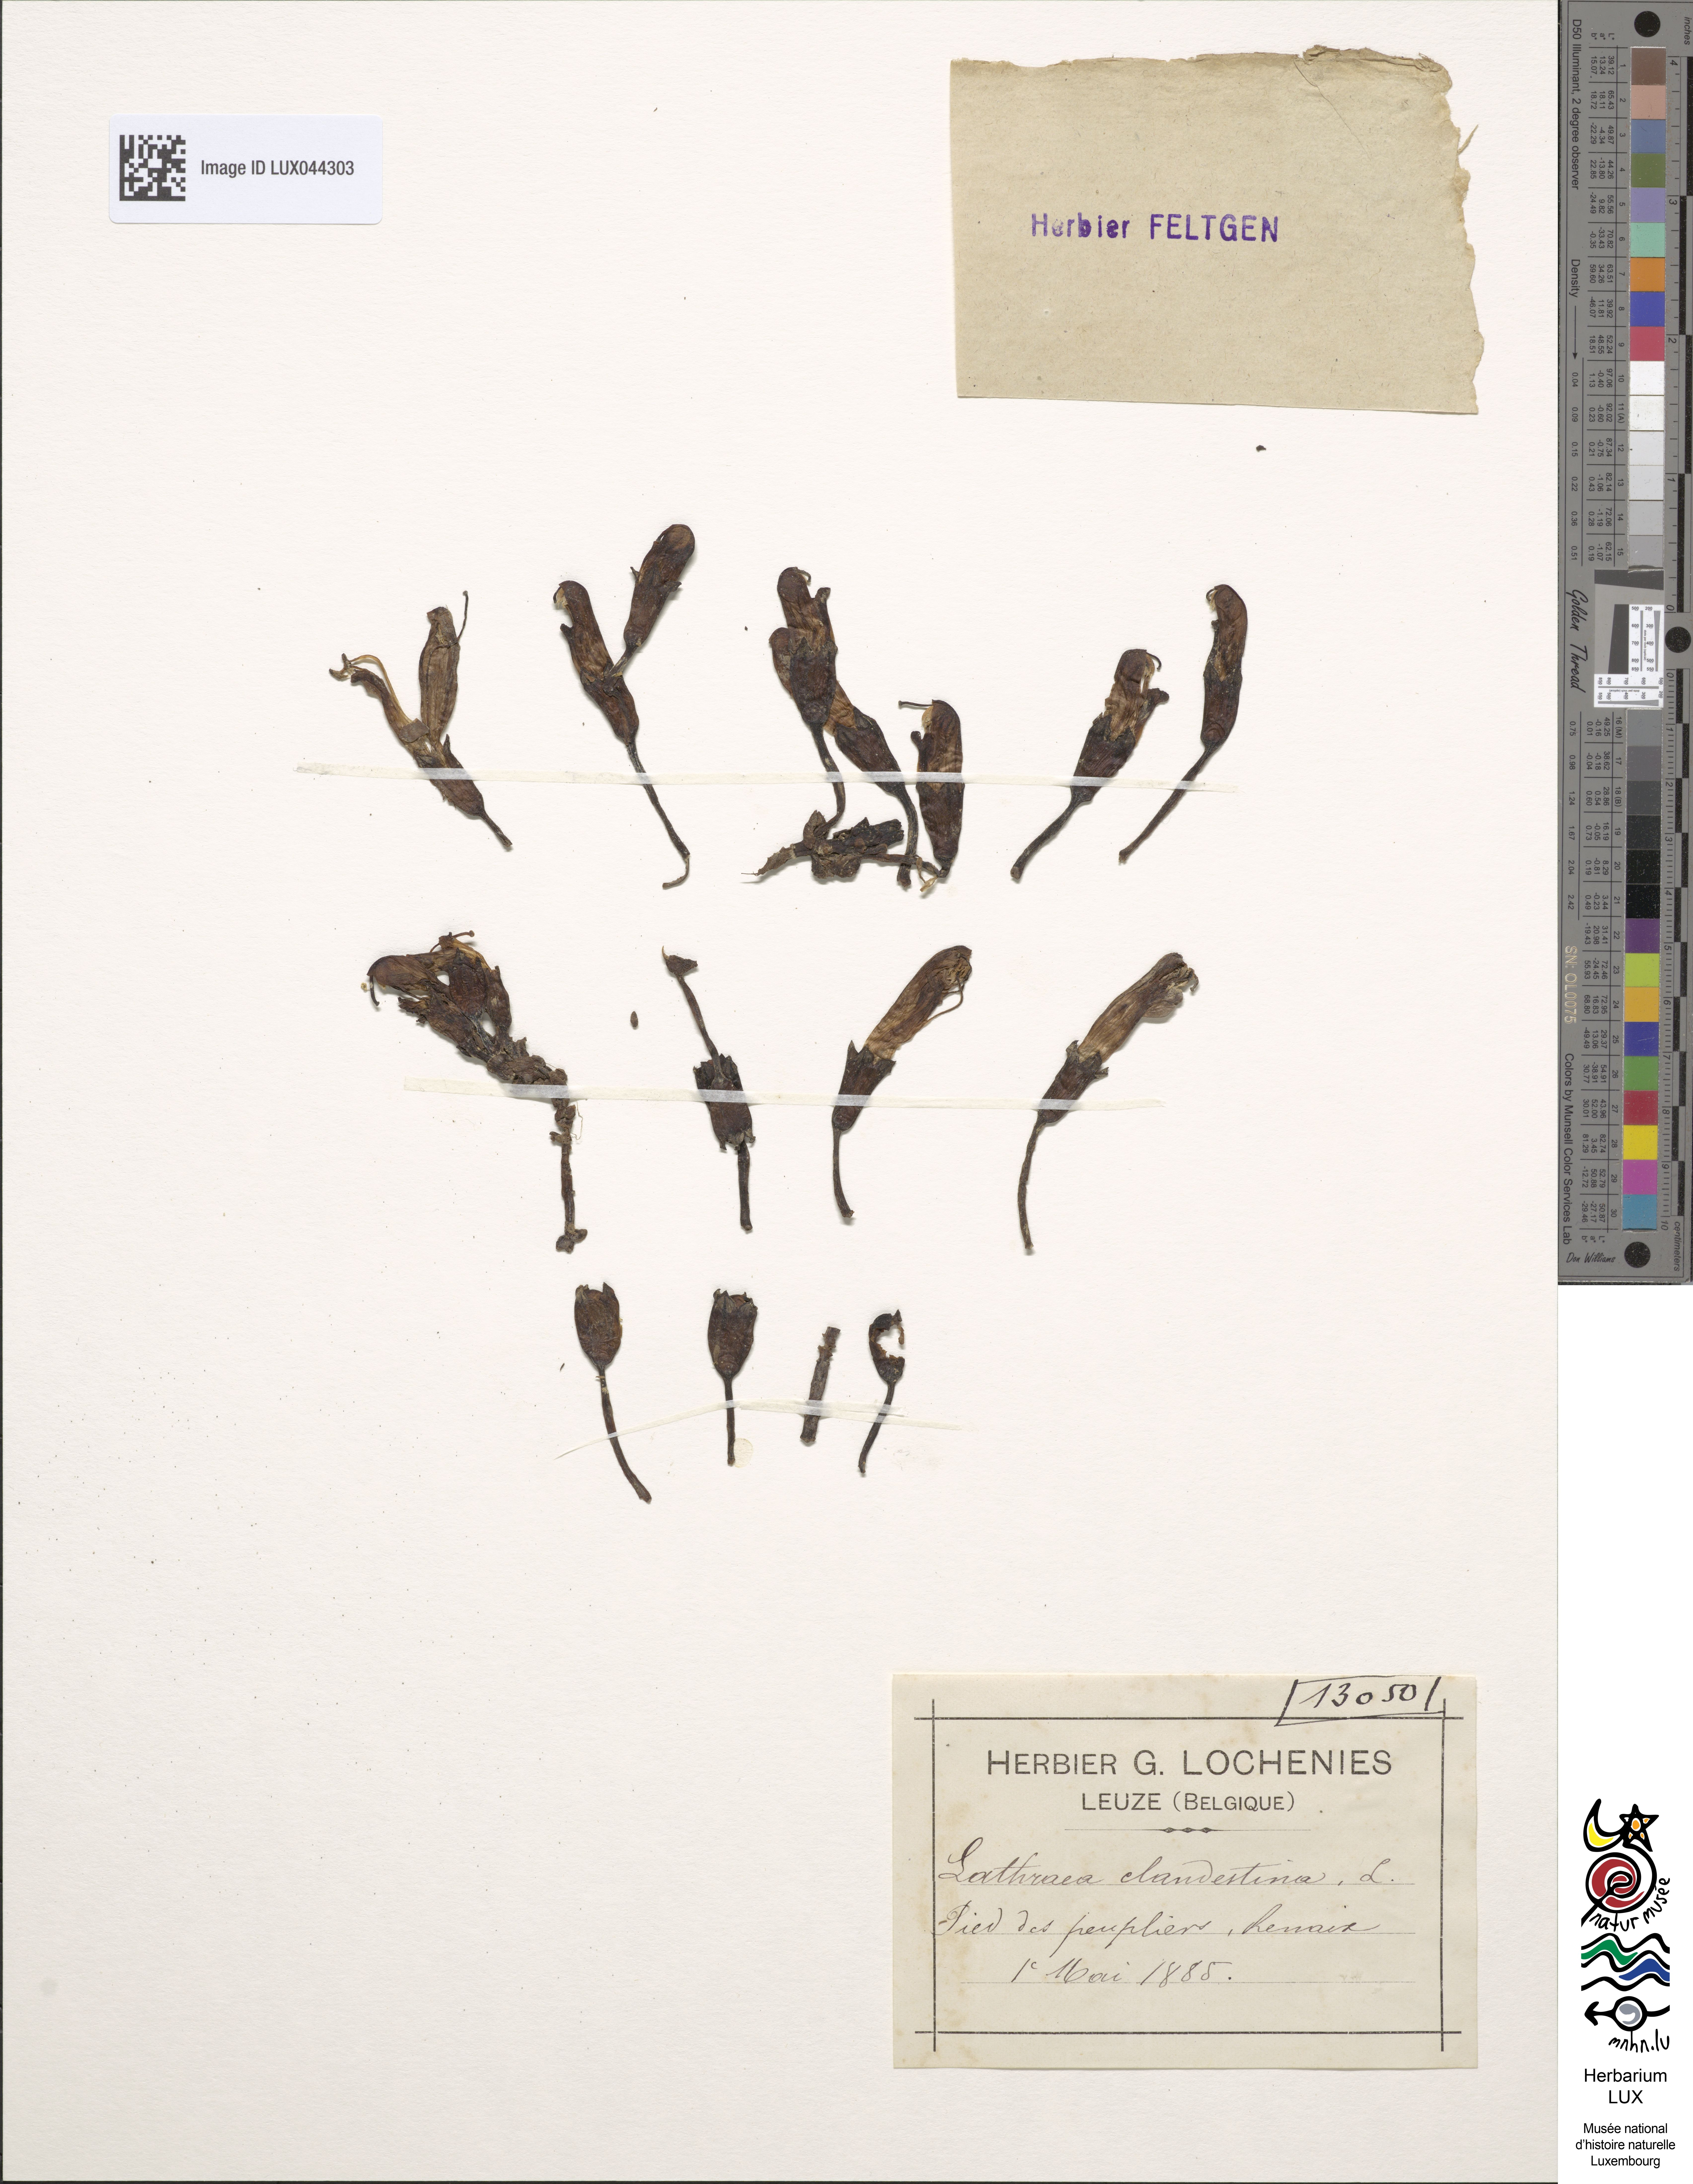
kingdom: Plantae
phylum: Tracheophyta
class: Magnoliopsida
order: Lamiales
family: Orobanchaceae
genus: Lathraea
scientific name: Lathraea clandestina
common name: Purple toothwort
